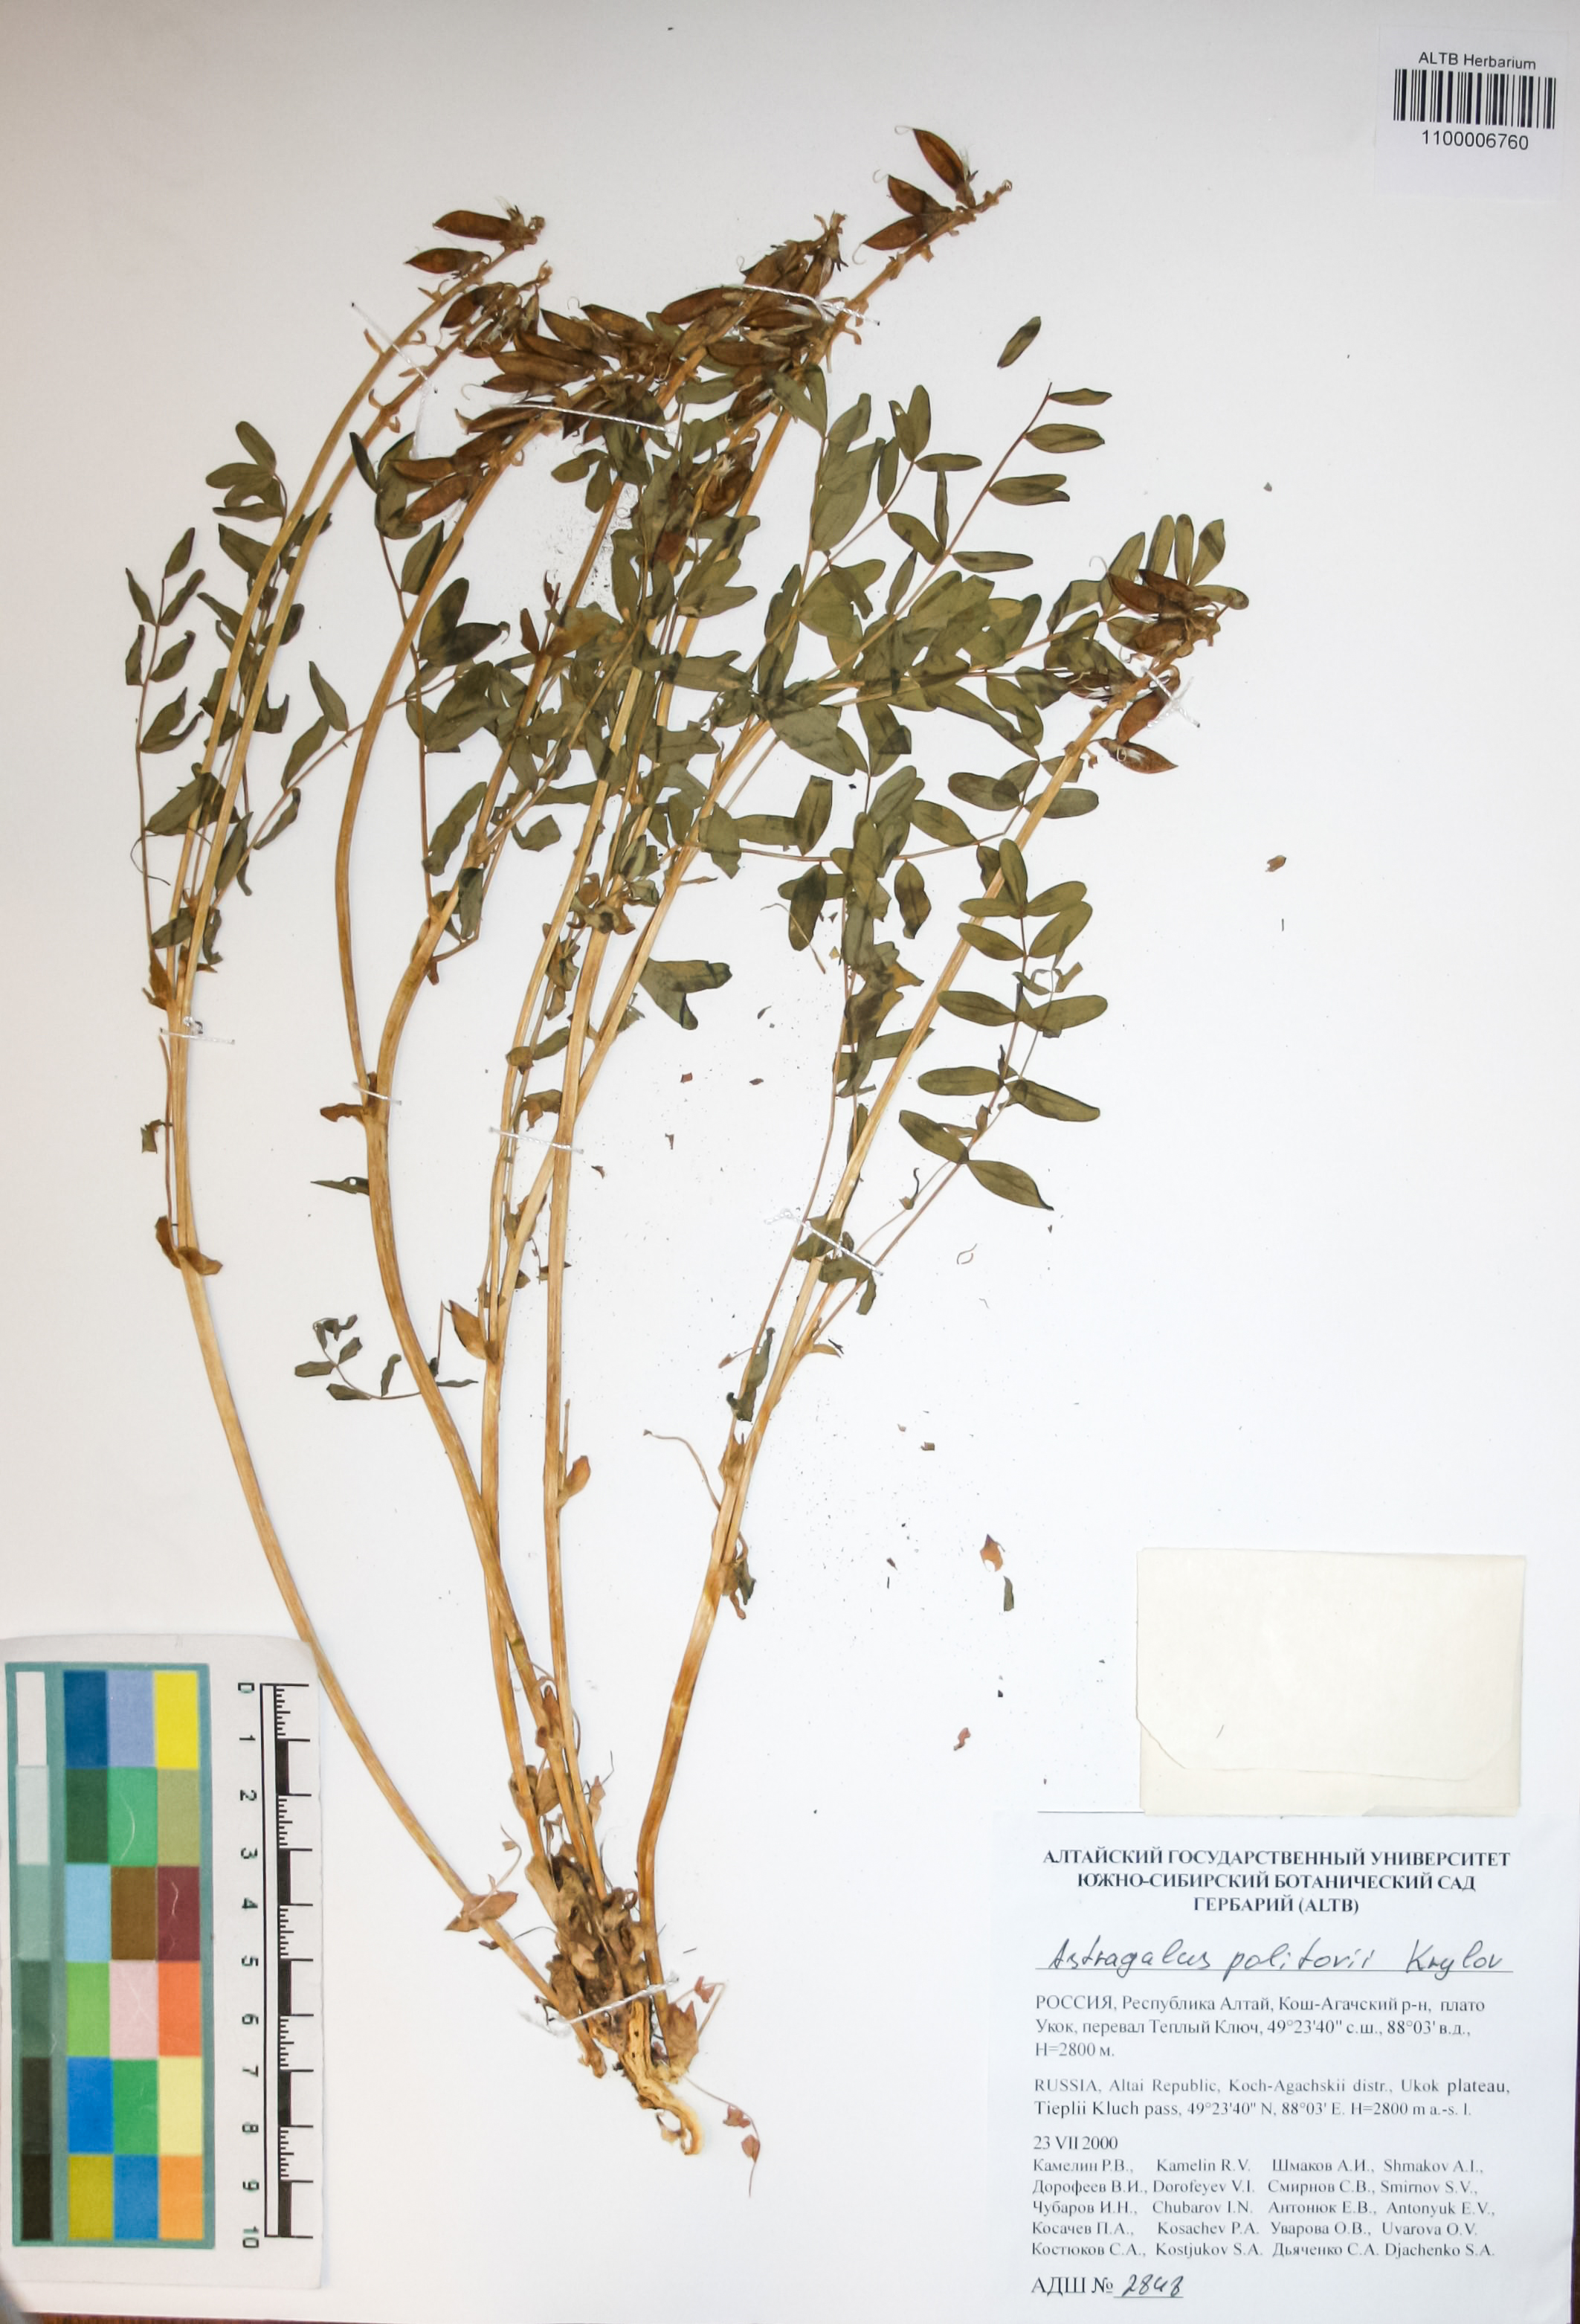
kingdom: Plantae
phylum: Tracheophyta
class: Magnoliopsida
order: Fabales
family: Fabaceae
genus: Astragalus
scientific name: Astragalus politovii
